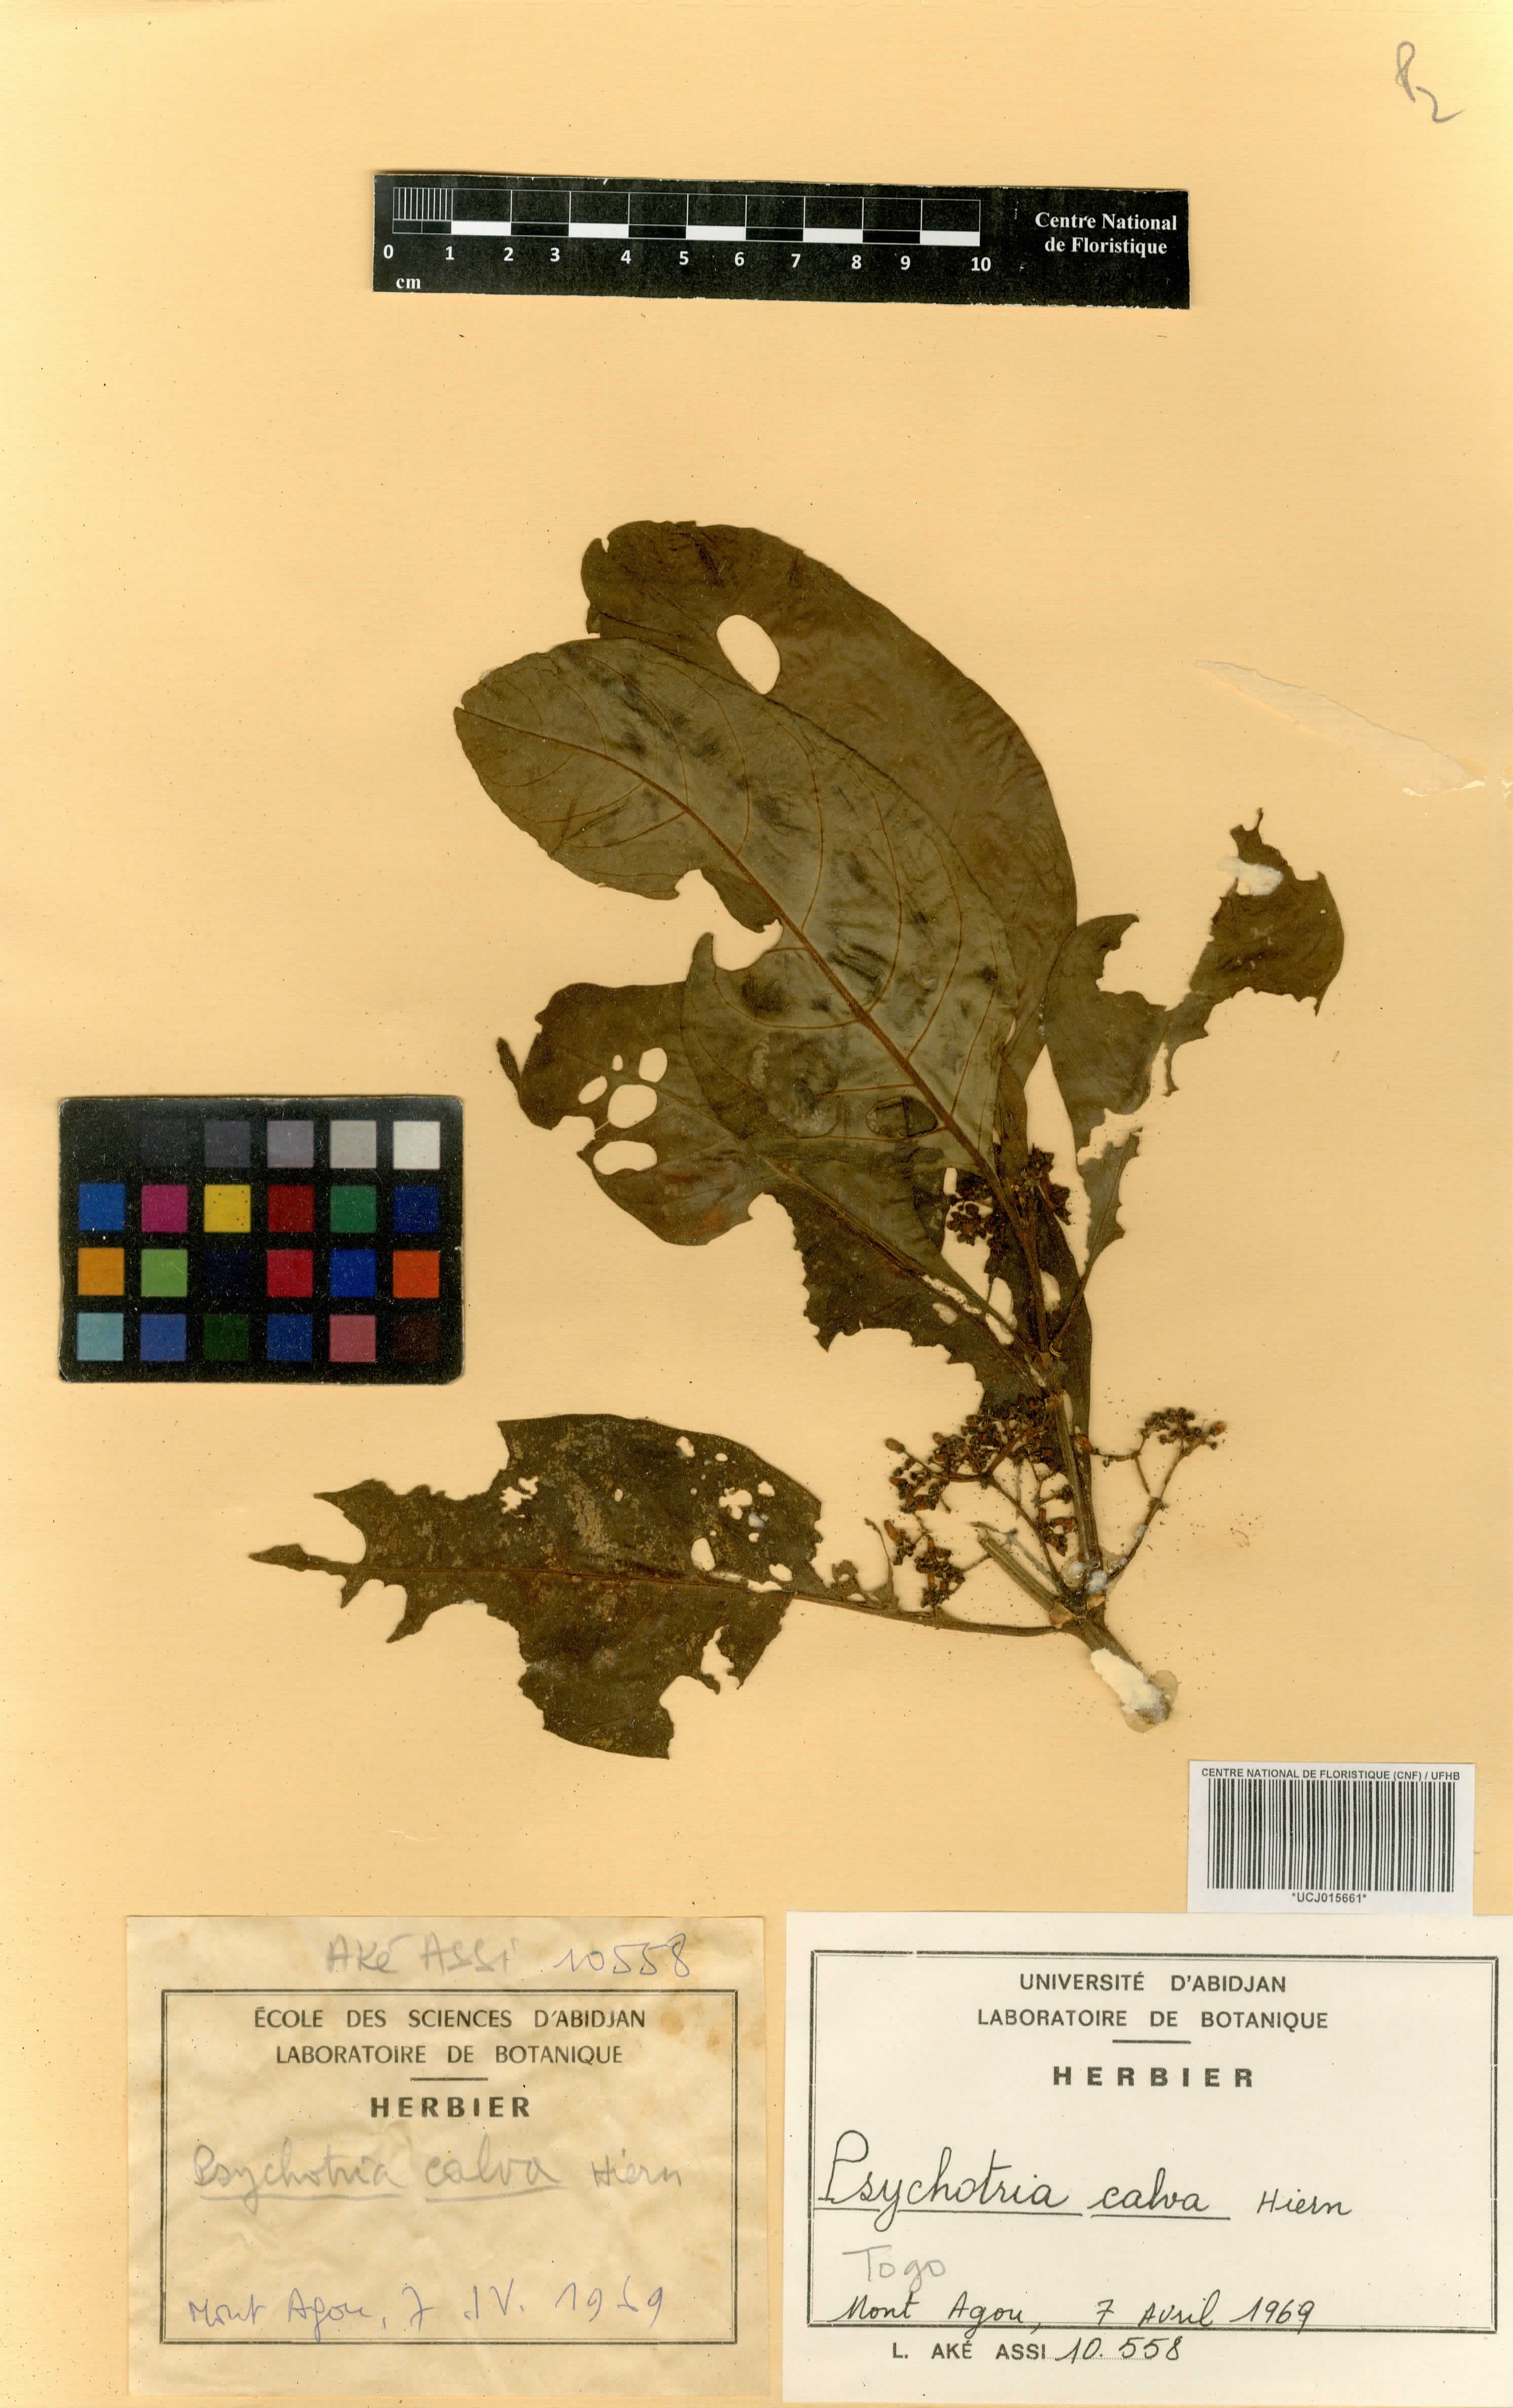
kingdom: Plantae
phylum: Tracheophyta
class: Magnoliopsida
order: Gentianales
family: Rubiaceae
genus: Psychotria
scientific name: Psychotria calva
